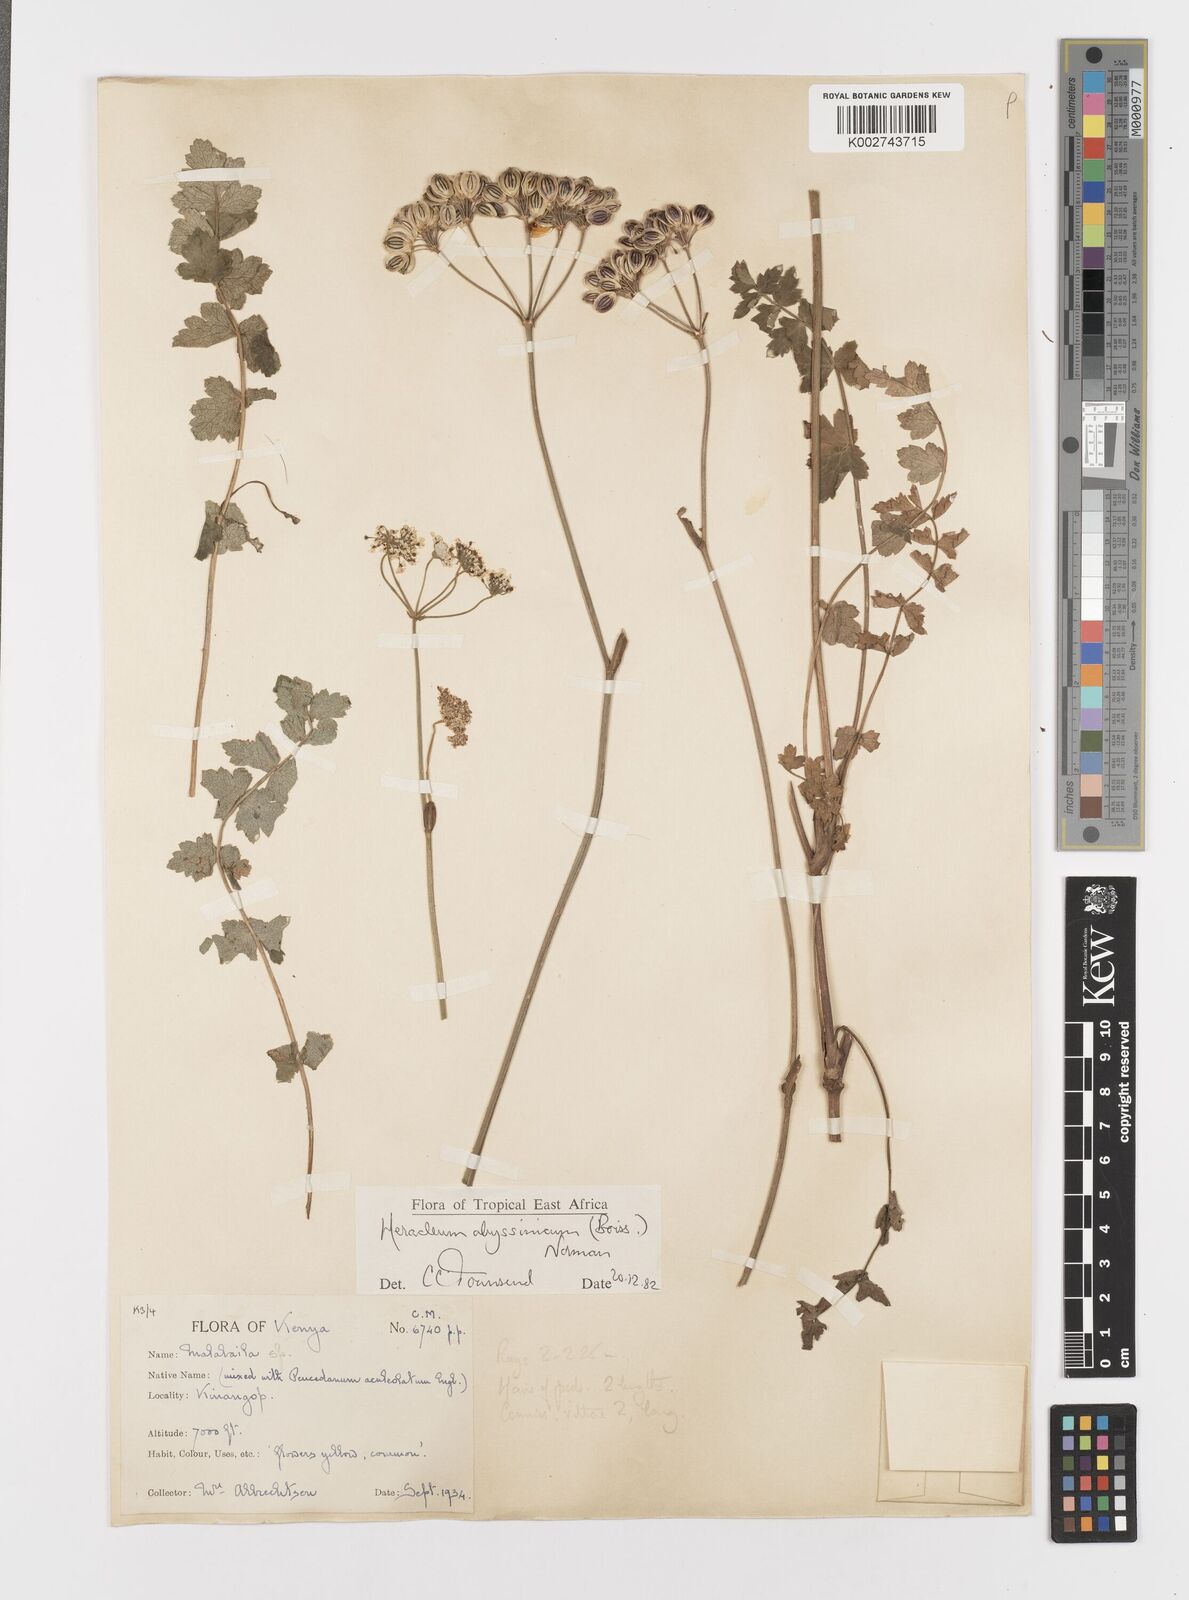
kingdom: Plantae
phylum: Tracheophyta
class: Magnoliopsida
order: Apiales
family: Apiaceae
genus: Heracleum
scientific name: Heracleum abyssinicum
